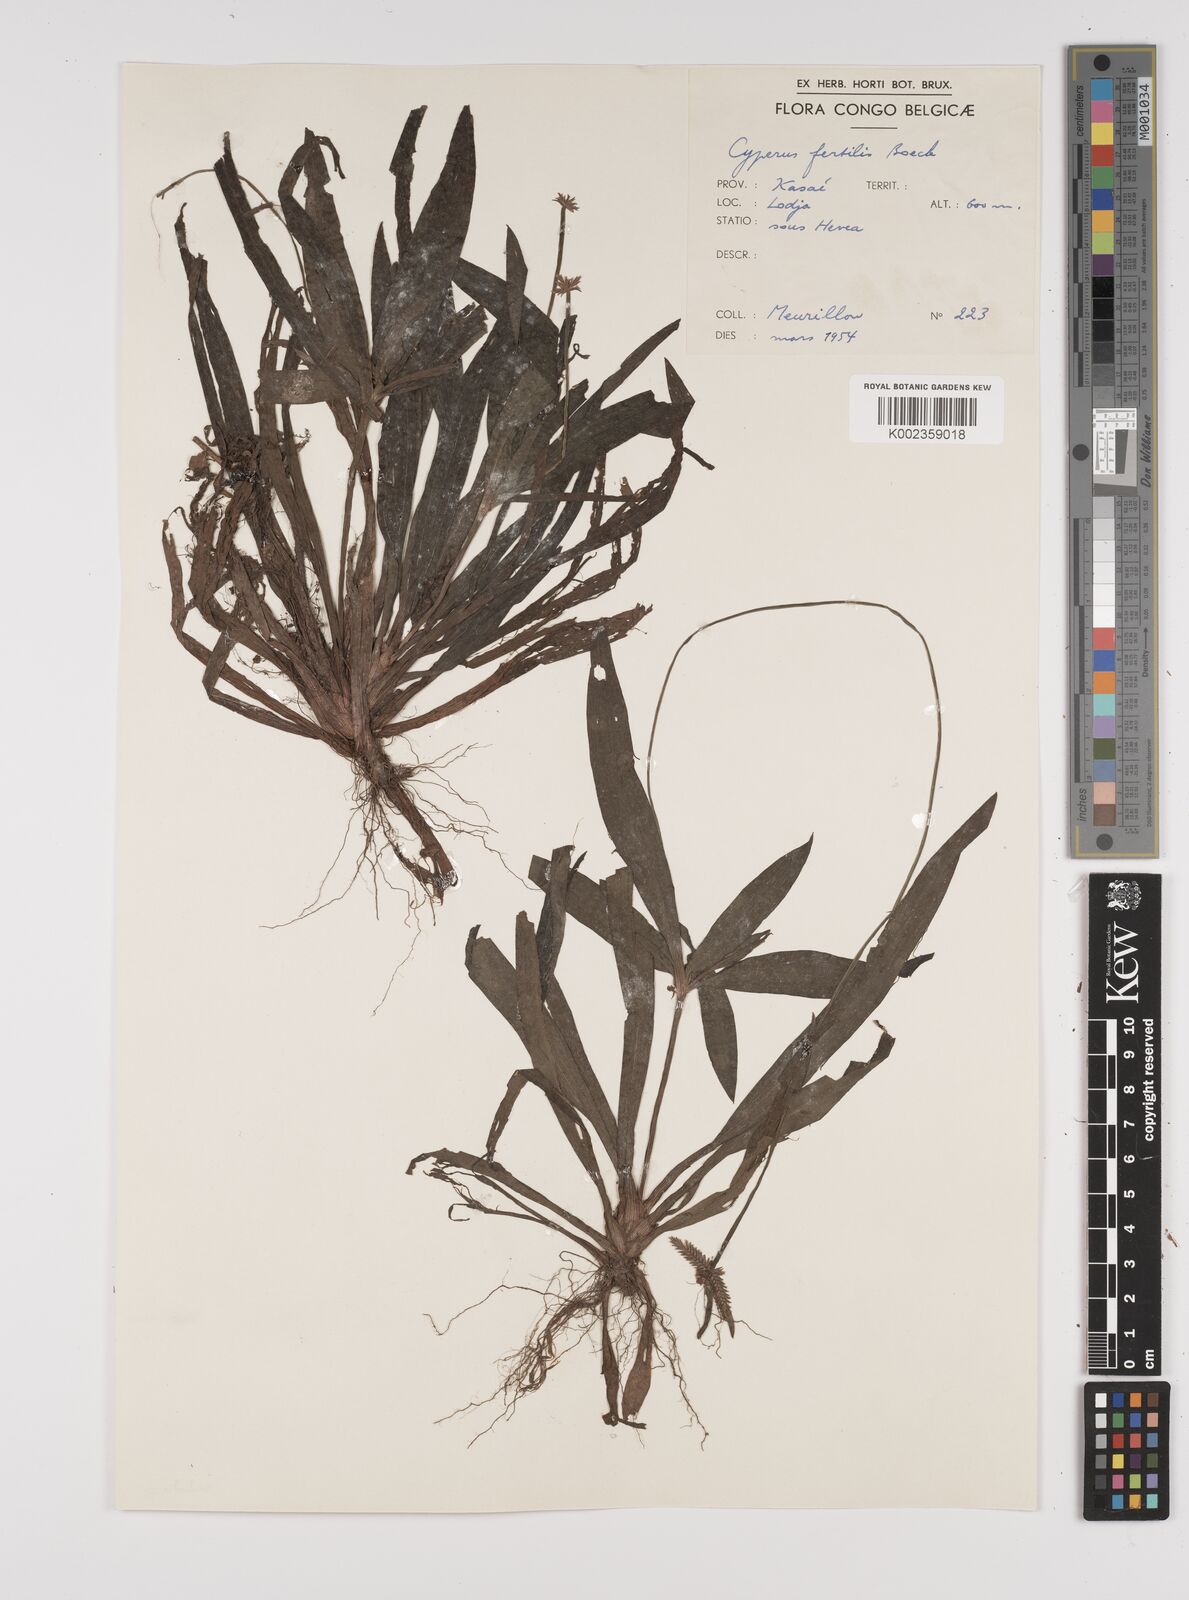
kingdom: Plantae
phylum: Tracheophyta
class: Liliopsida
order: Poales
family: Cyperaceae
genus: Cyperus
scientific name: Cyperus fertilis
